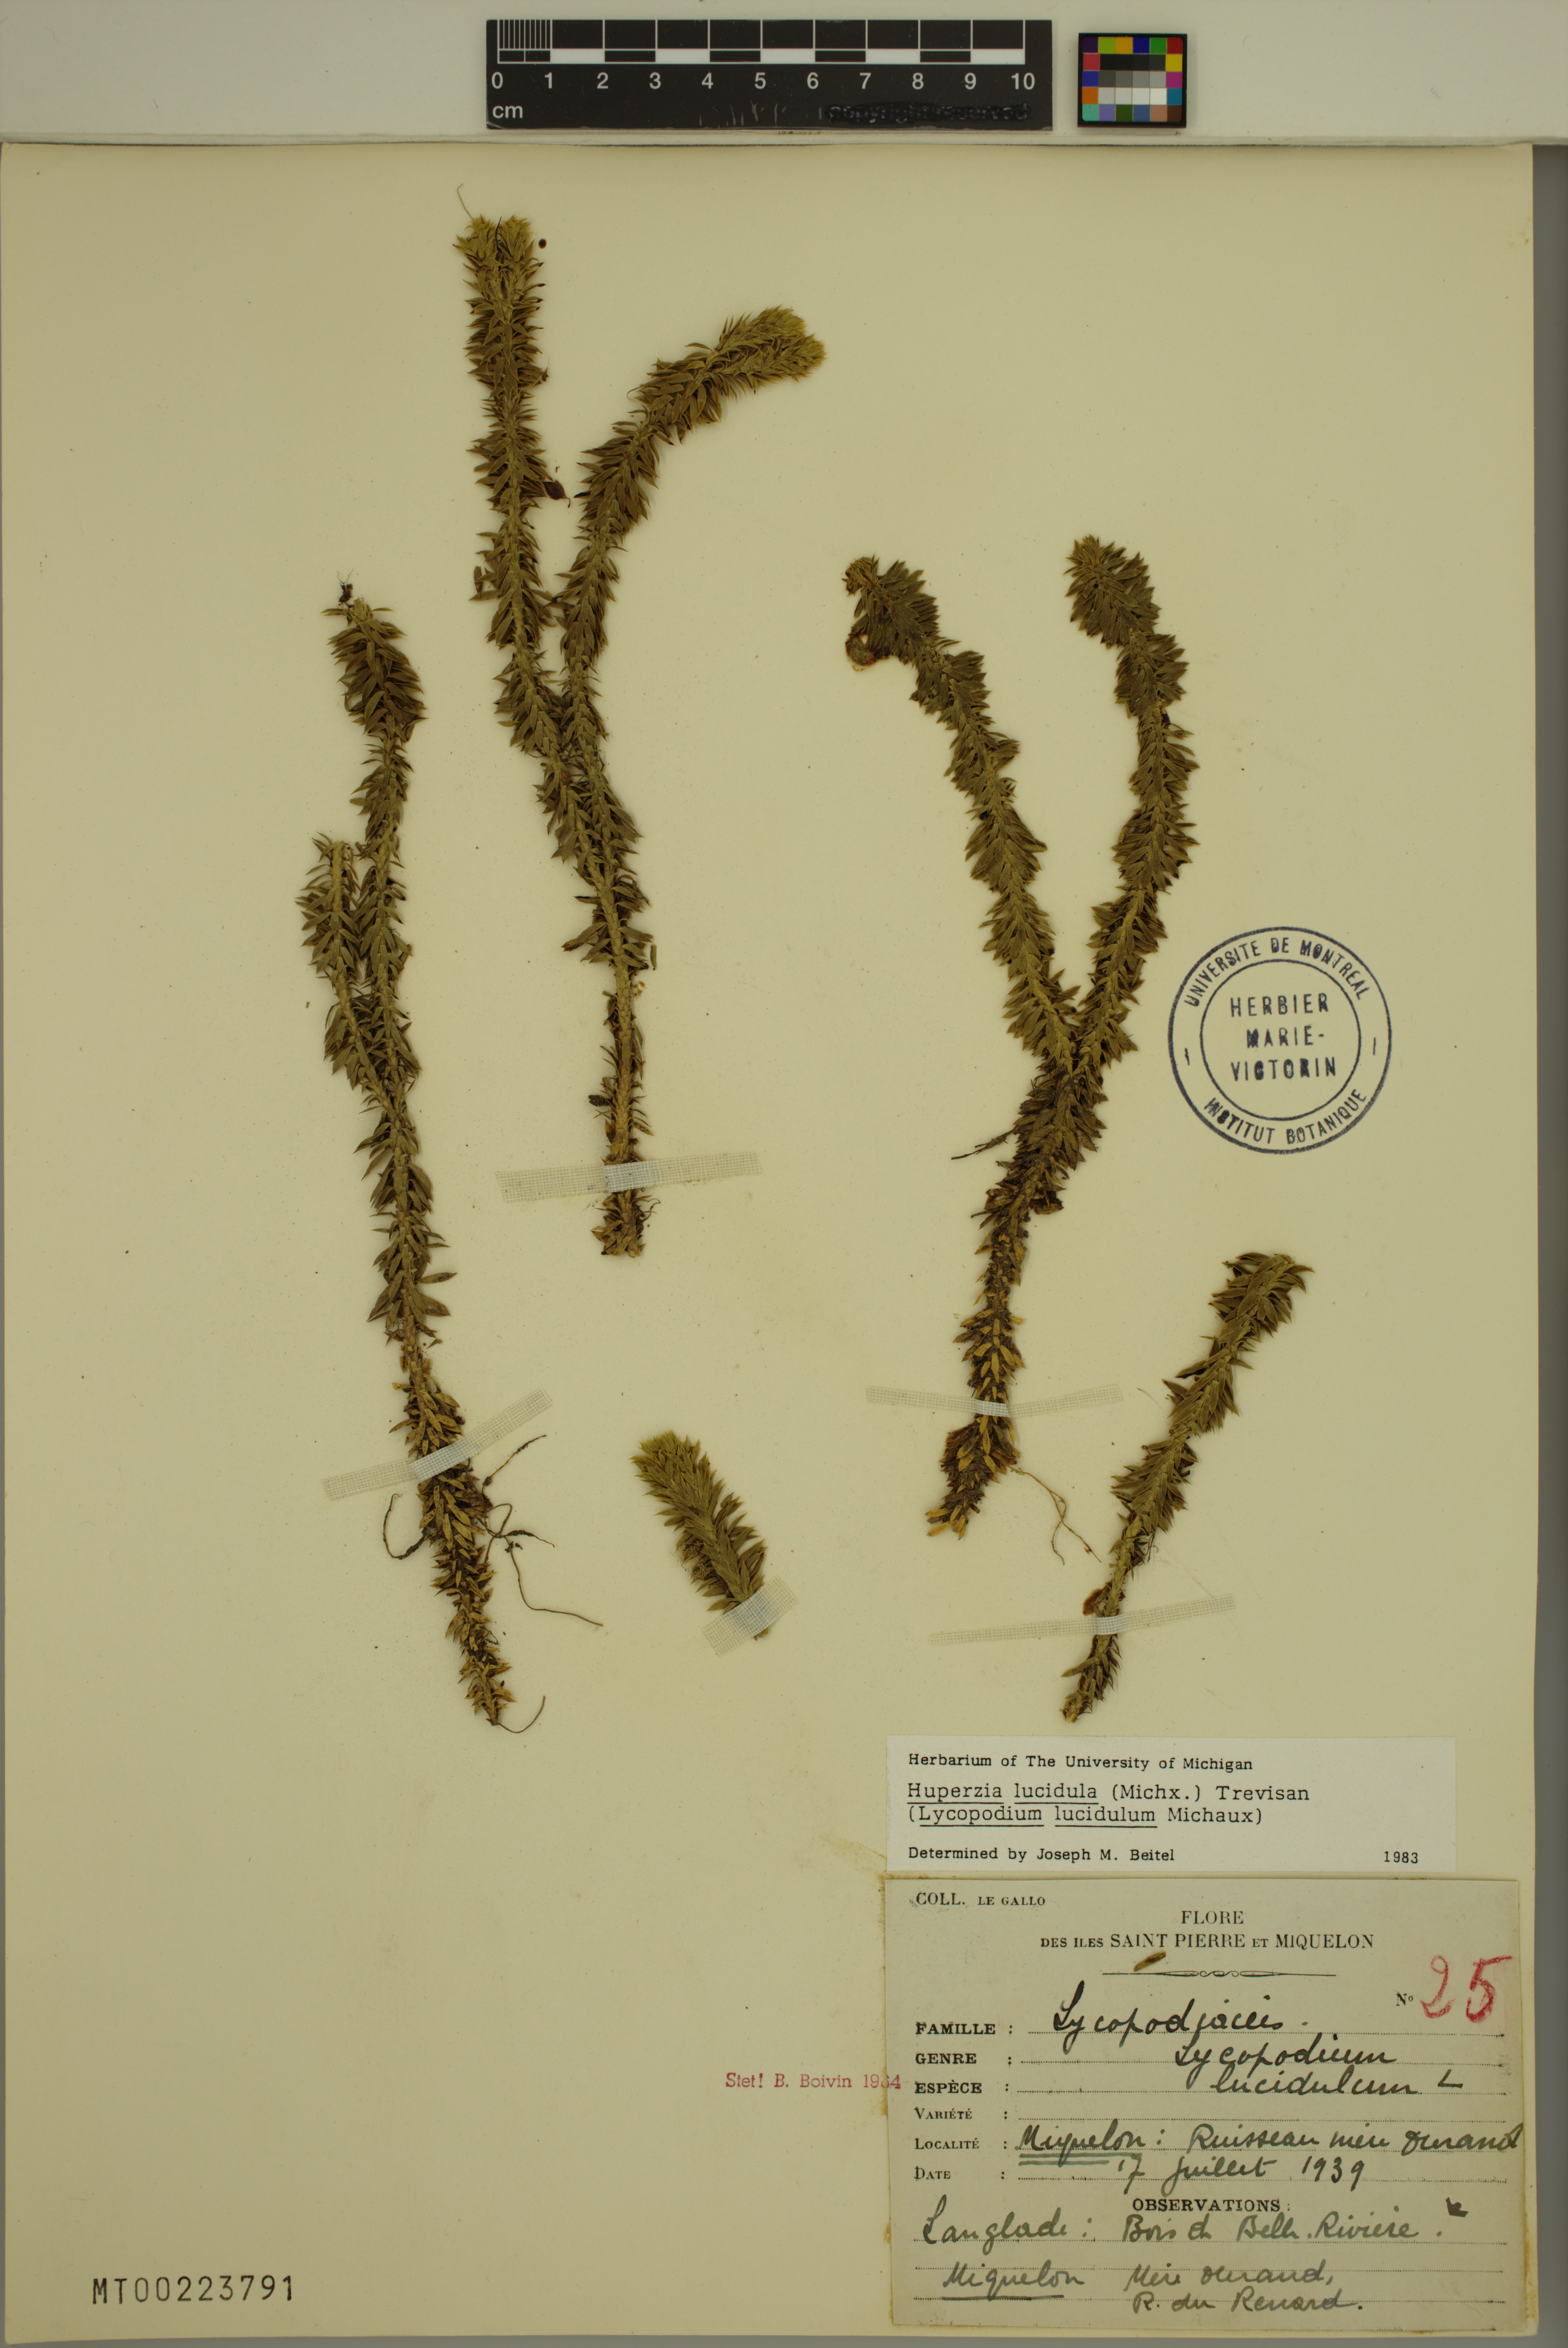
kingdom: Plantae
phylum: Tracheophyta
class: Lycopodiopsida
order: Lycopodiales
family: Lycopodiaceae
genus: Huperzia
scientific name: Huperzia lucidula
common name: Shining clubmoss
